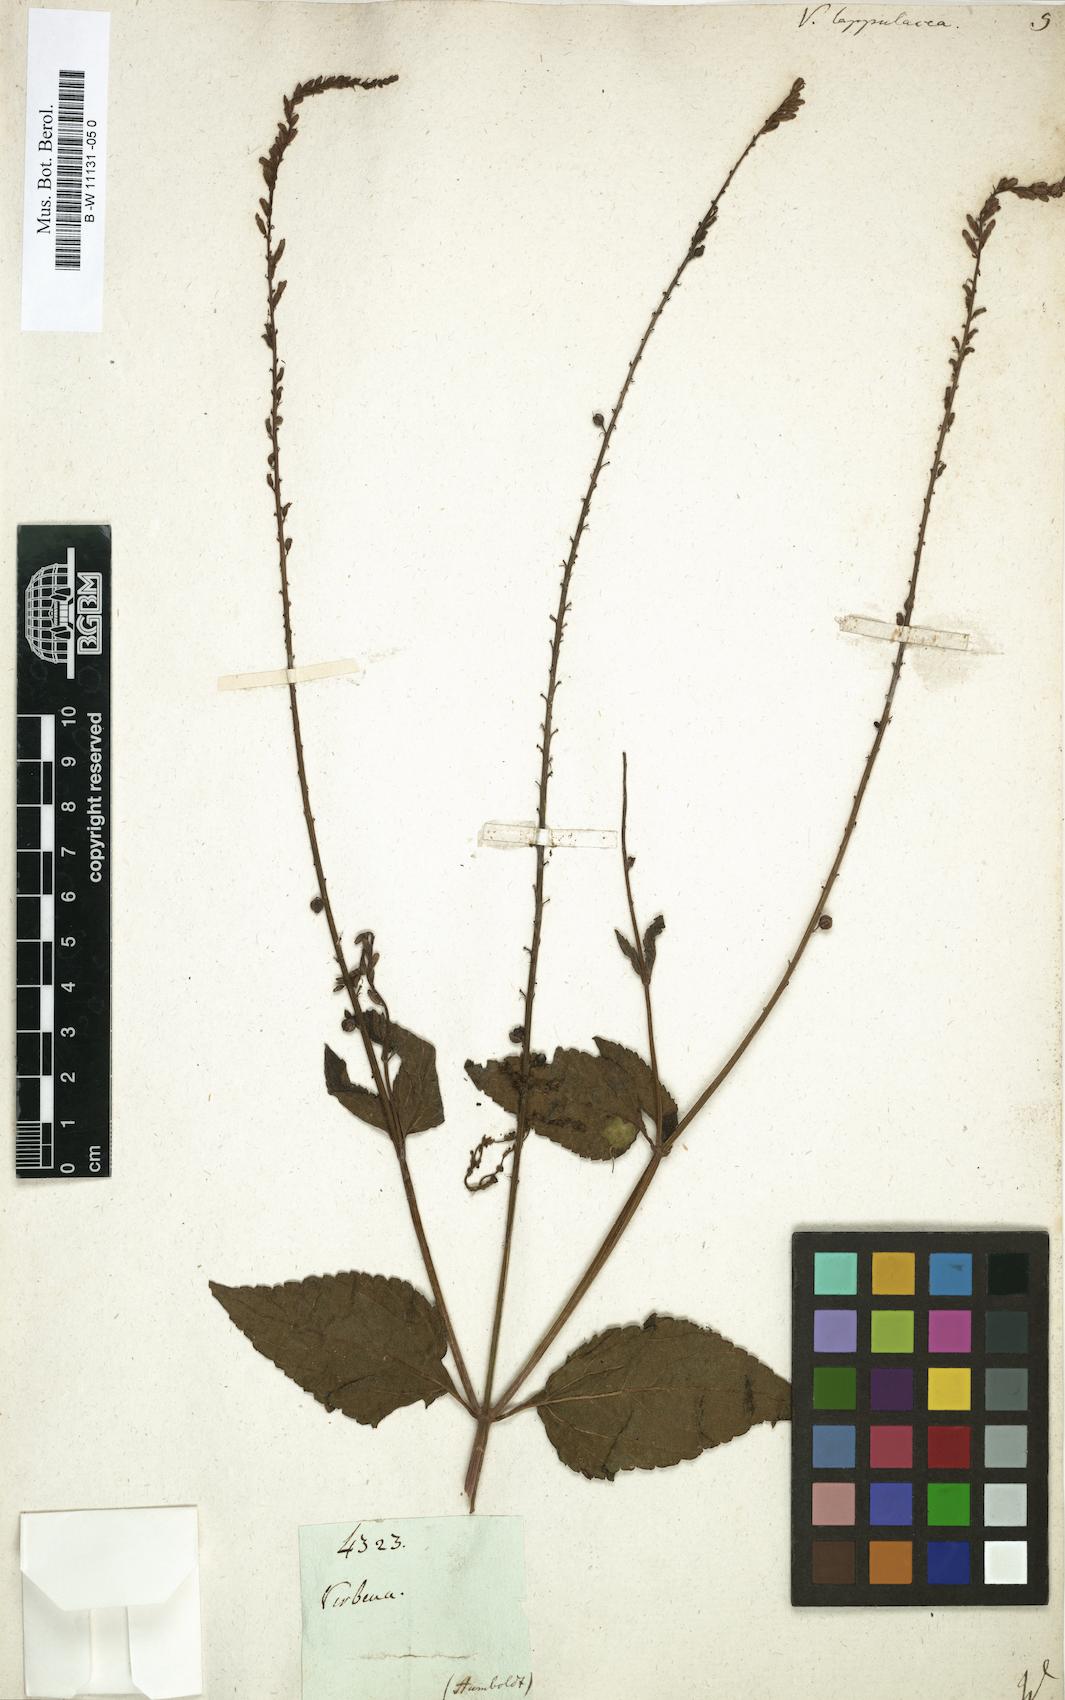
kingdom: Plantae
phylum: Tracheophyta
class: Magnoliopsida
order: Lamiales
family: Verbenaceae
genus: Priva
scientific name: Priva lappulacea
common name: Fasten-'pon-coat
